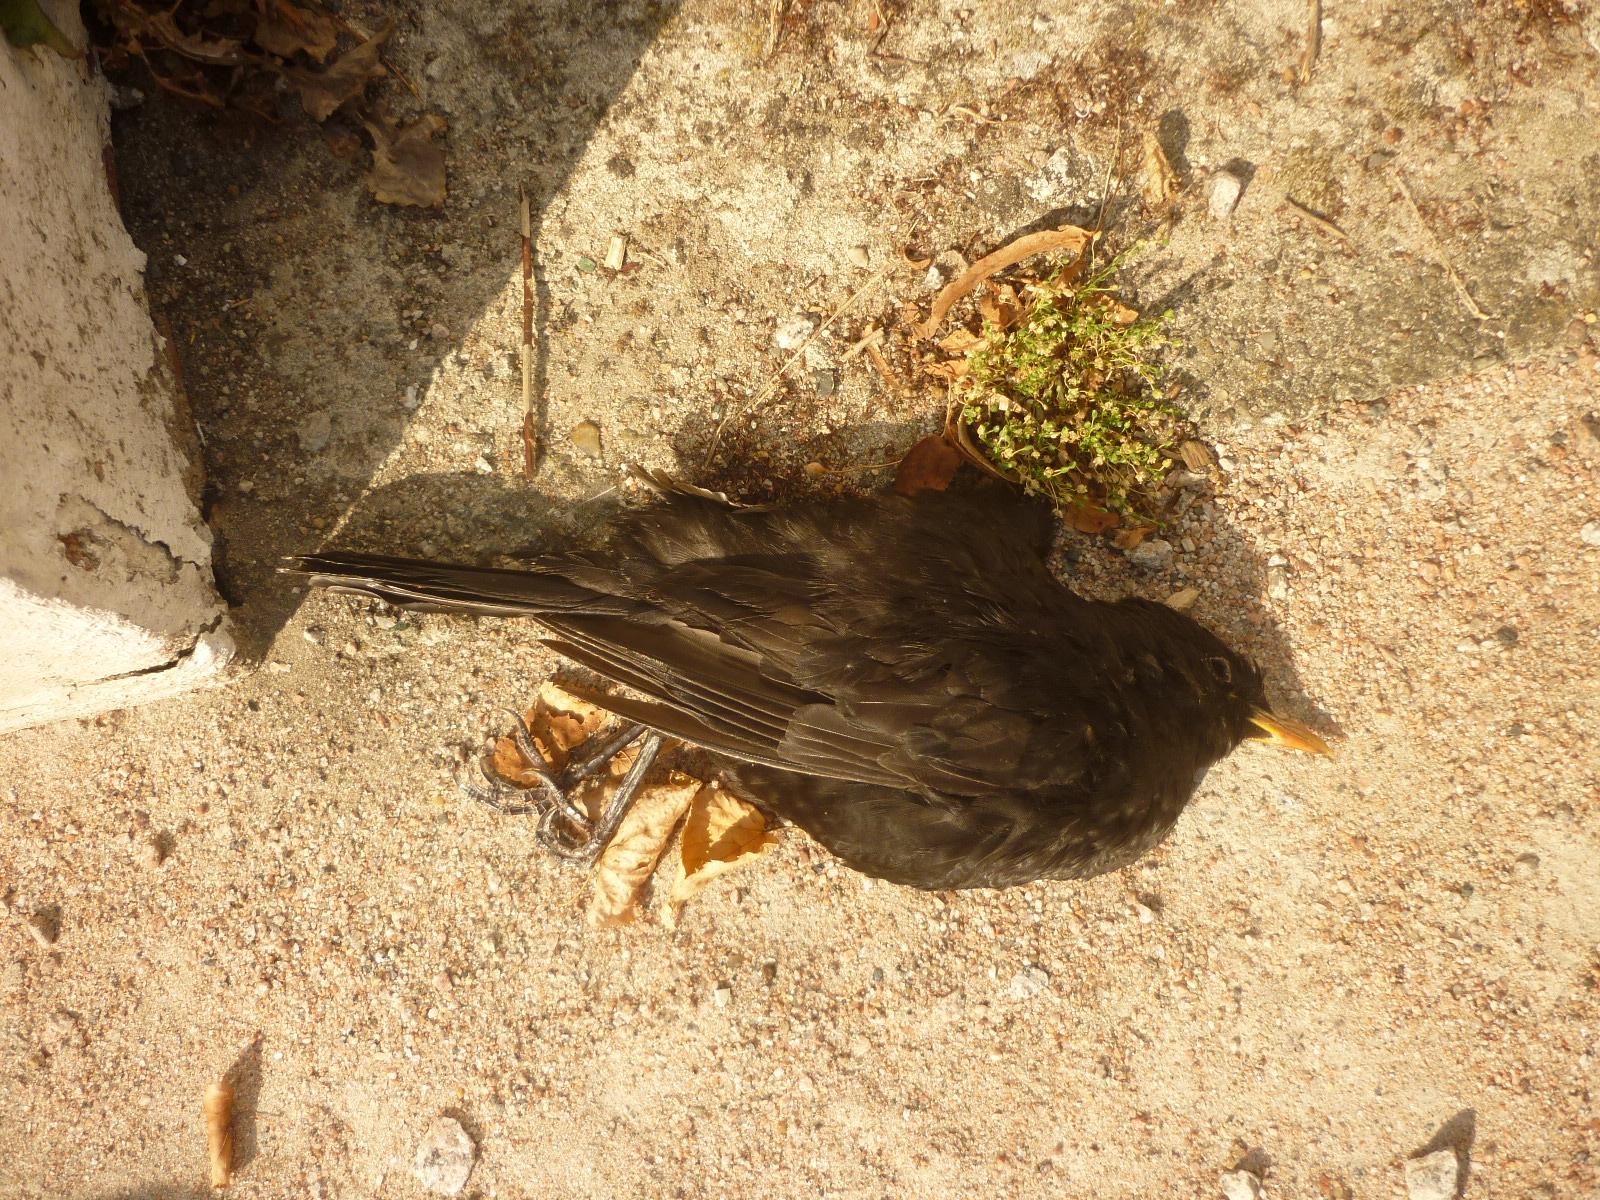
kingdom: Animalia
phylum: Chordata
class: Aves
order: Passeriformes
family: Turdidae
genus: Turdus
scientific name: Turdus merula
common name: Common blackbird
